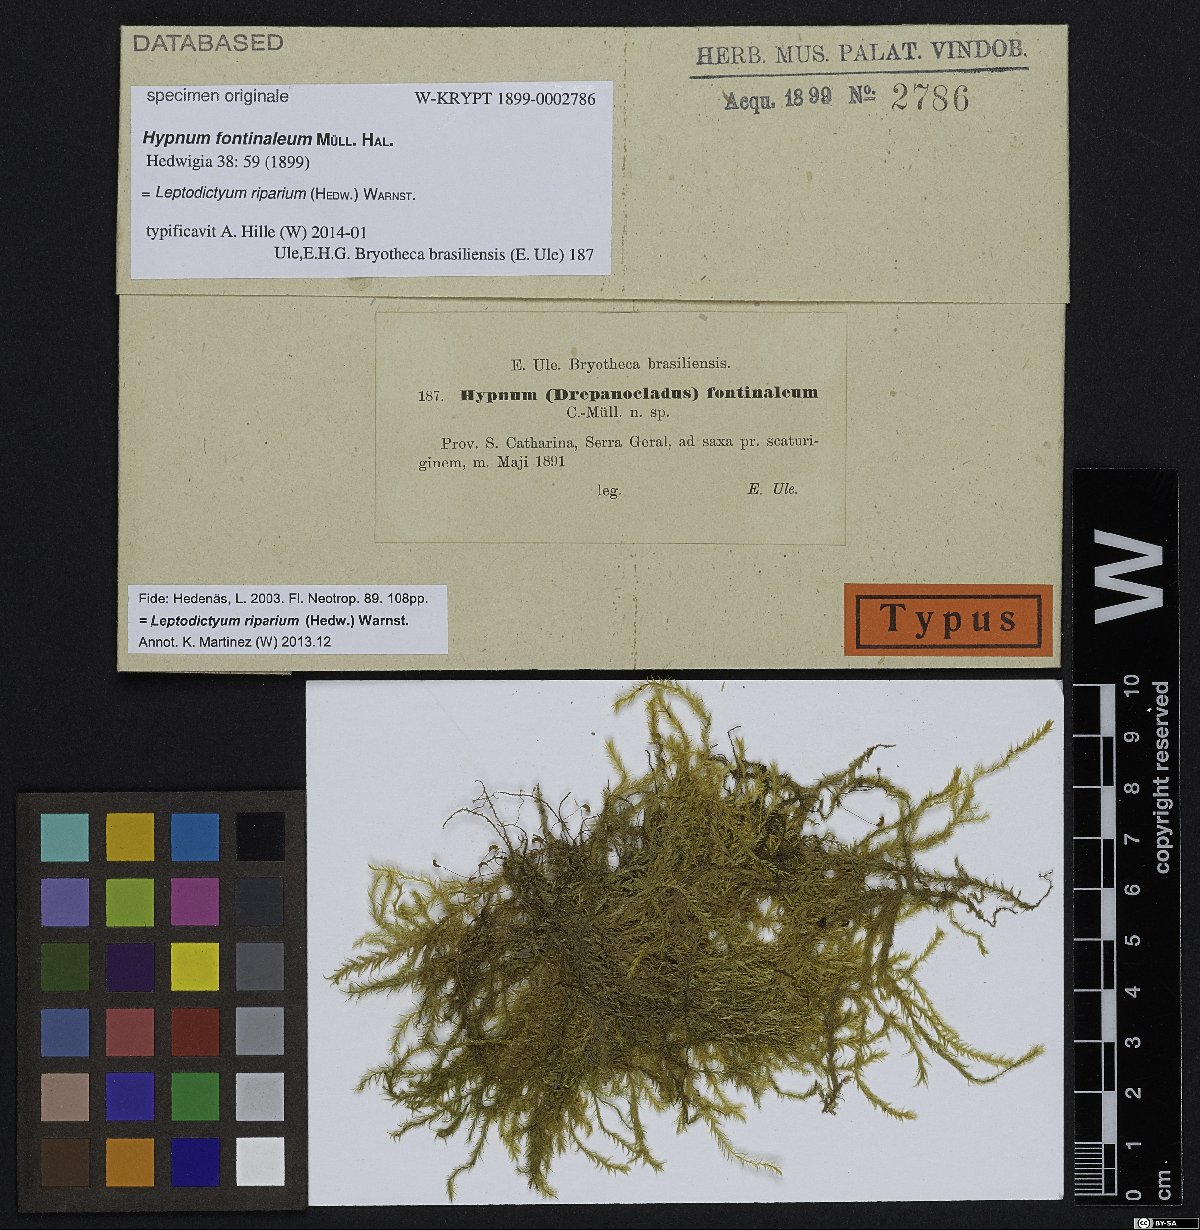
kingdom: Plantae
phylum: Bryophyta
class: Bryopsida
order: Hypnales
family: Amblystegiaceae
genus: Leptodictyum
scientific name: Leptodictyum riparium
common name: Riparian feather moss
